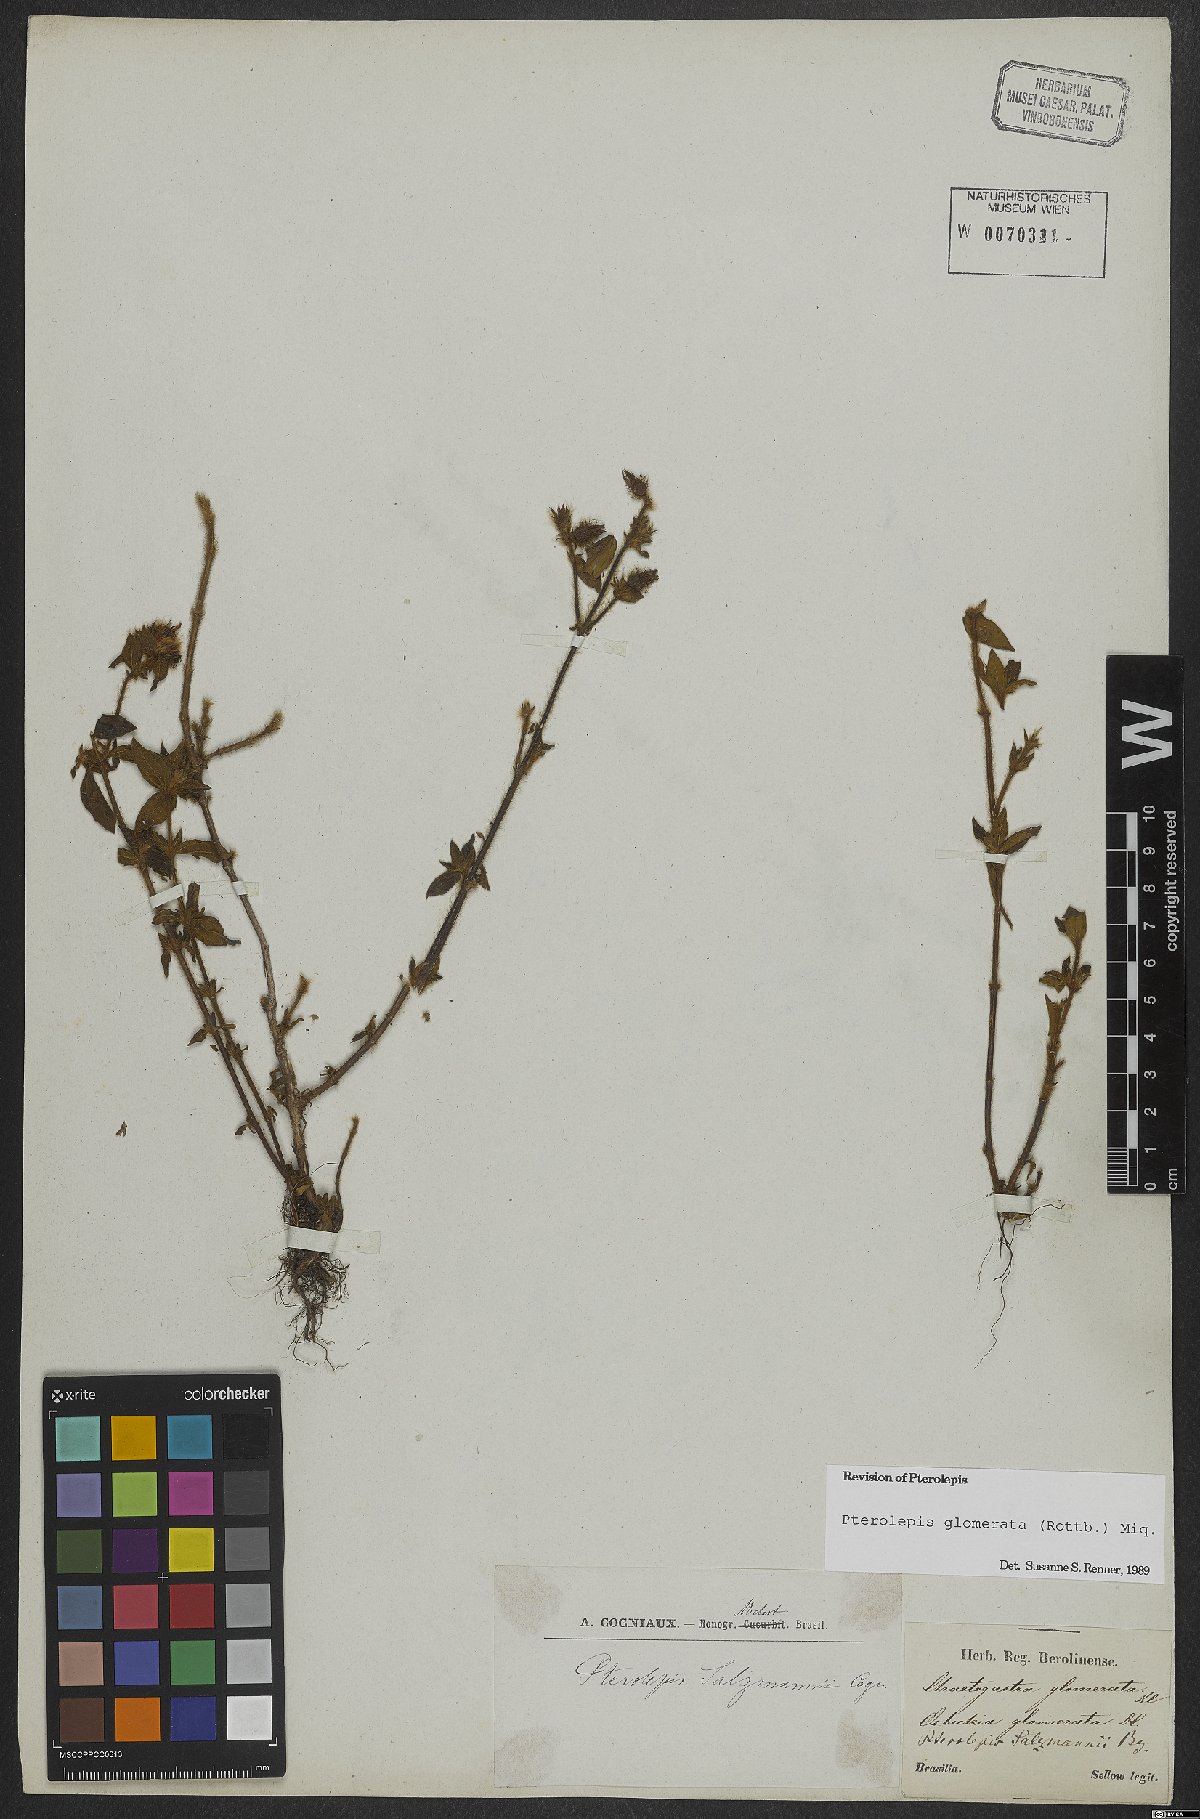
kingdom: Plantae
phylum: Tracheophyta
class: Magnoliopsida
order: Myrtales
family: Melastomataceae
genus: Pterolepis
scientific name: Pterolepis glomerata
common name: False meadowbeauty
